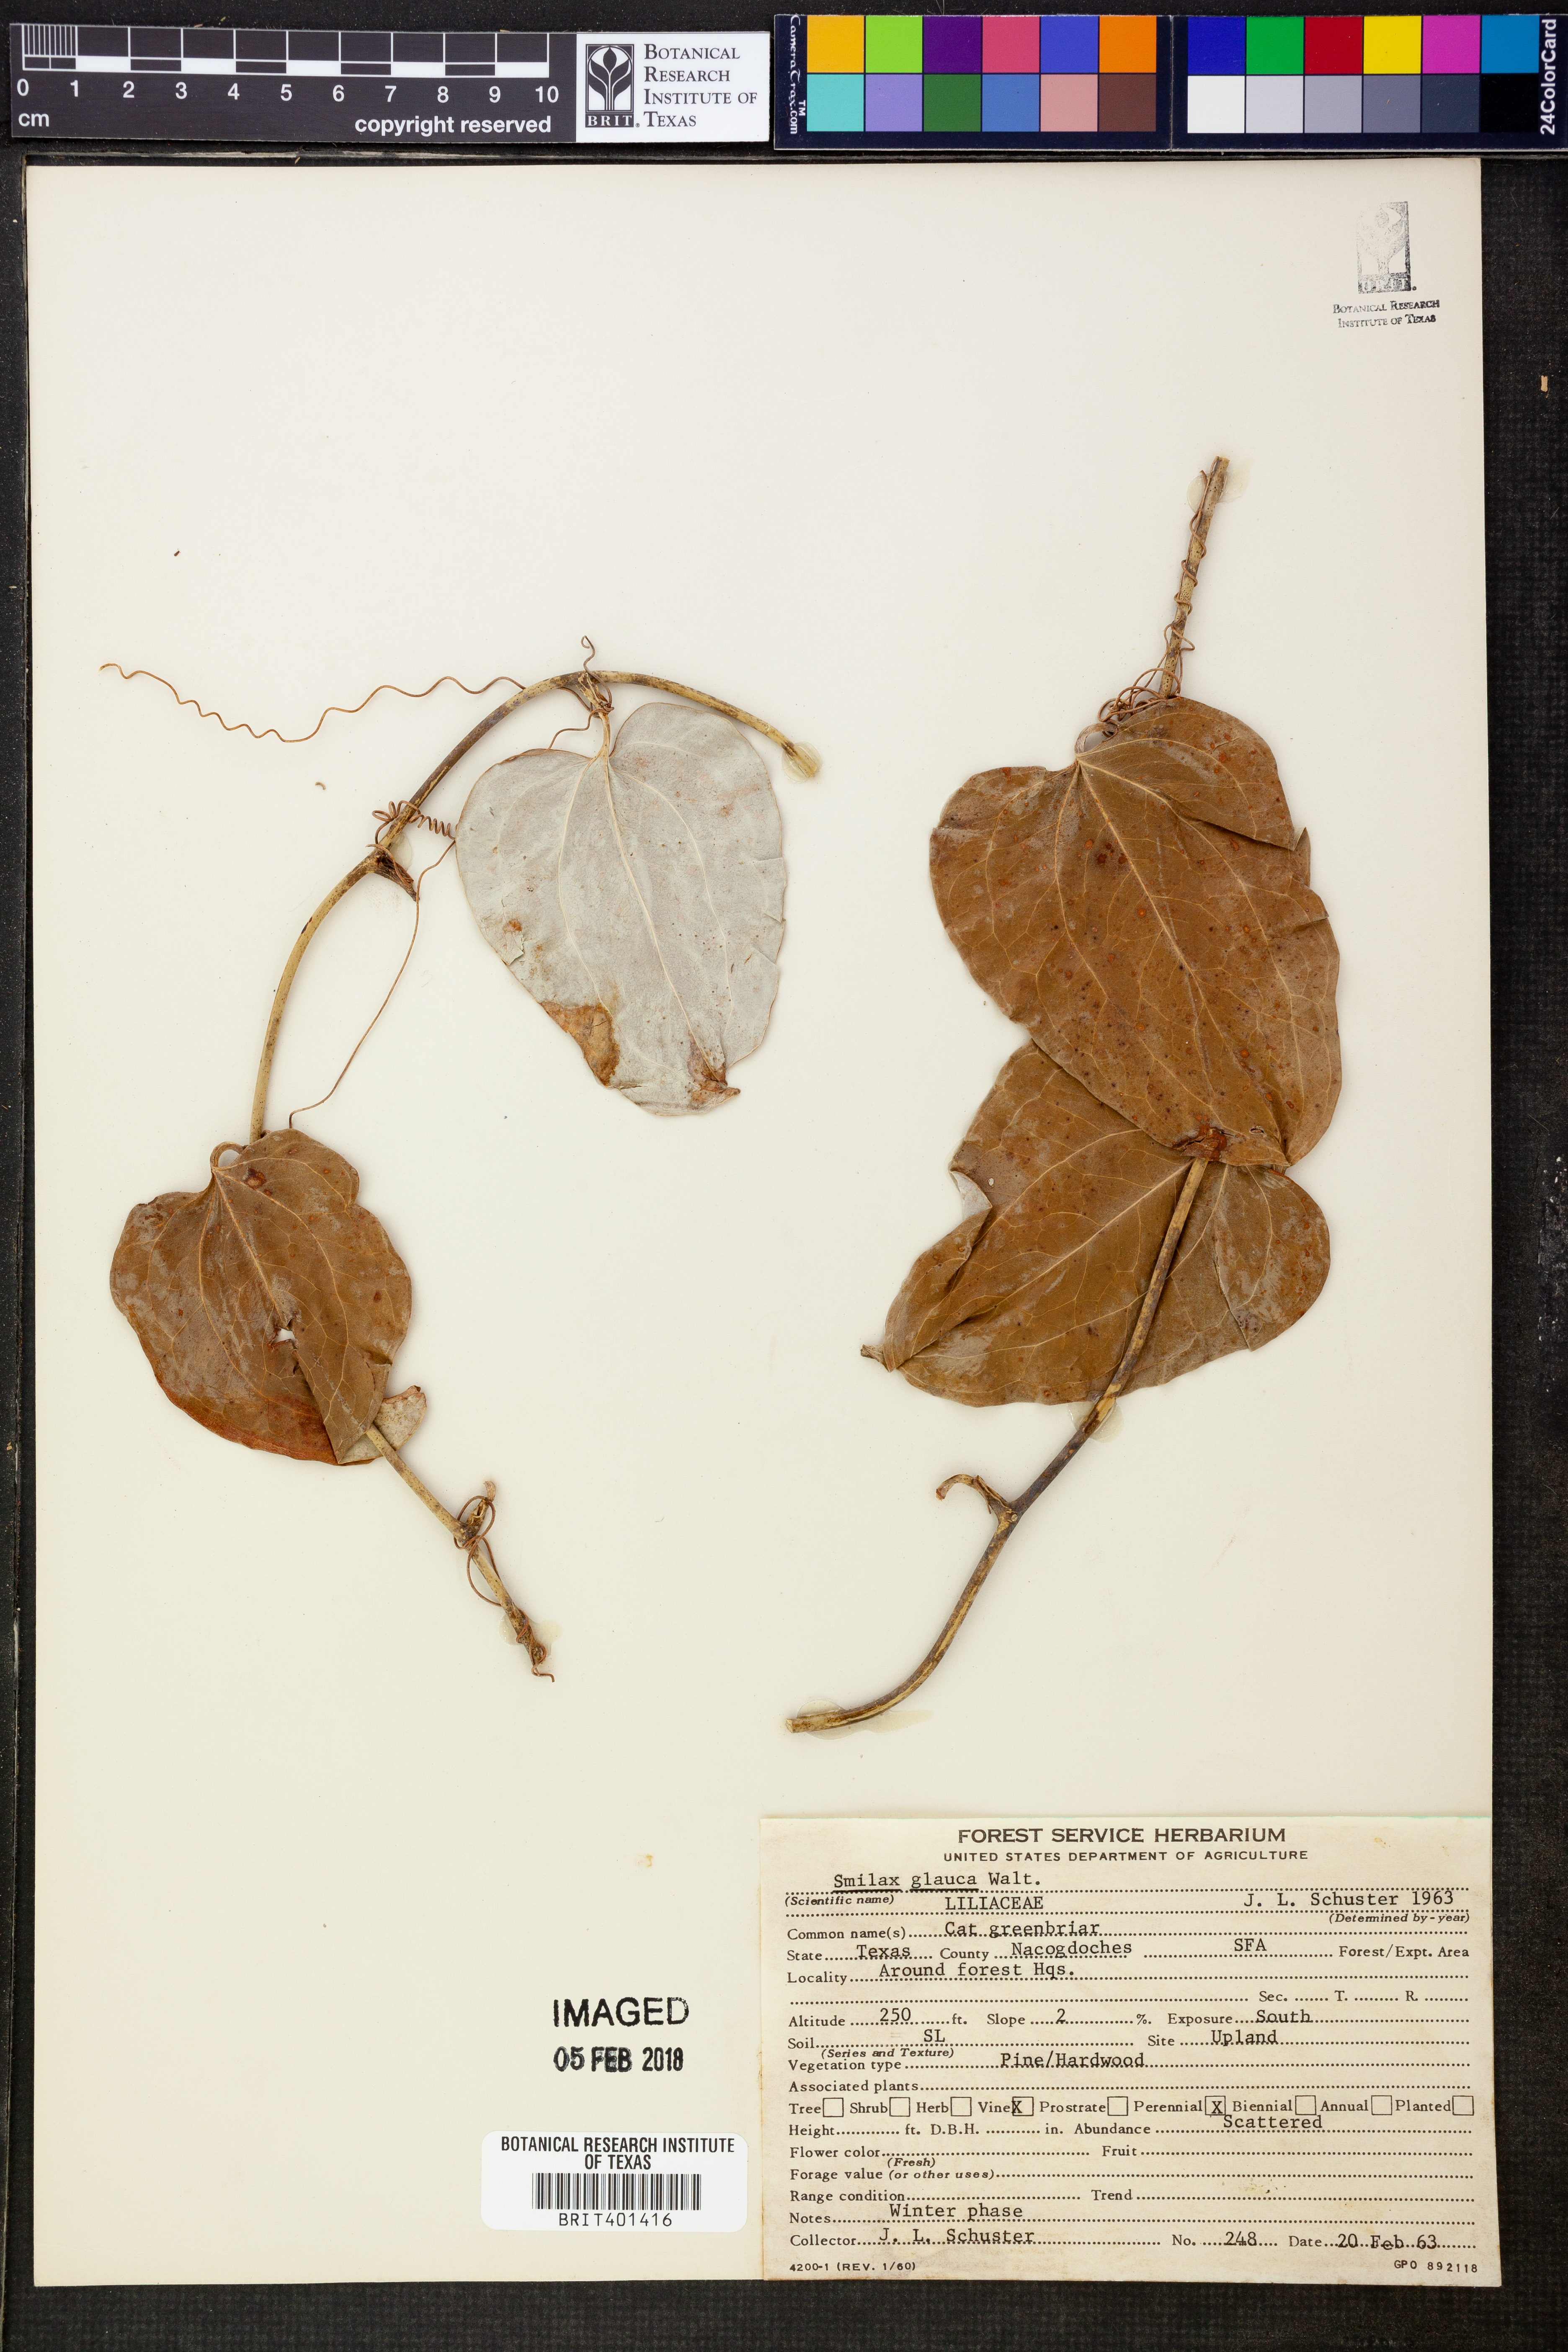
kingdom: Plantae
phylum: Tracheophyta
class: Liliopsida
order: Liliales
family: Smilacaceae
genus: Smilax
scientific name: Smilax glauca
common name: Cat greenbrier
